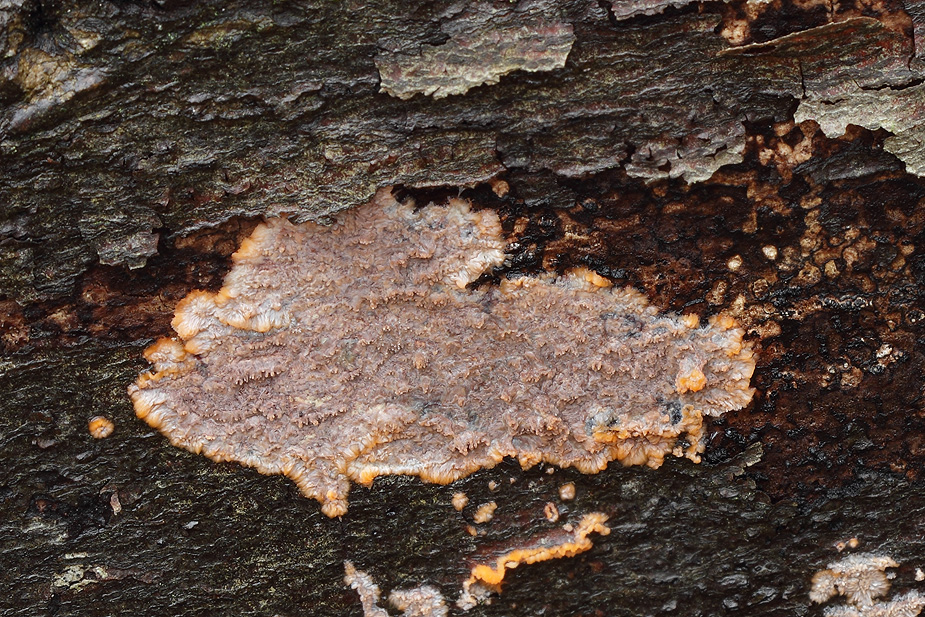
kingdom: Fungi
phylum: Basidiomycota
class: Agaricomycetes
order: Polyporales
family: Meruliaceae
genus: Phlebia
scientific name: Phlebia radiata
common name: stråle-åresvamp
